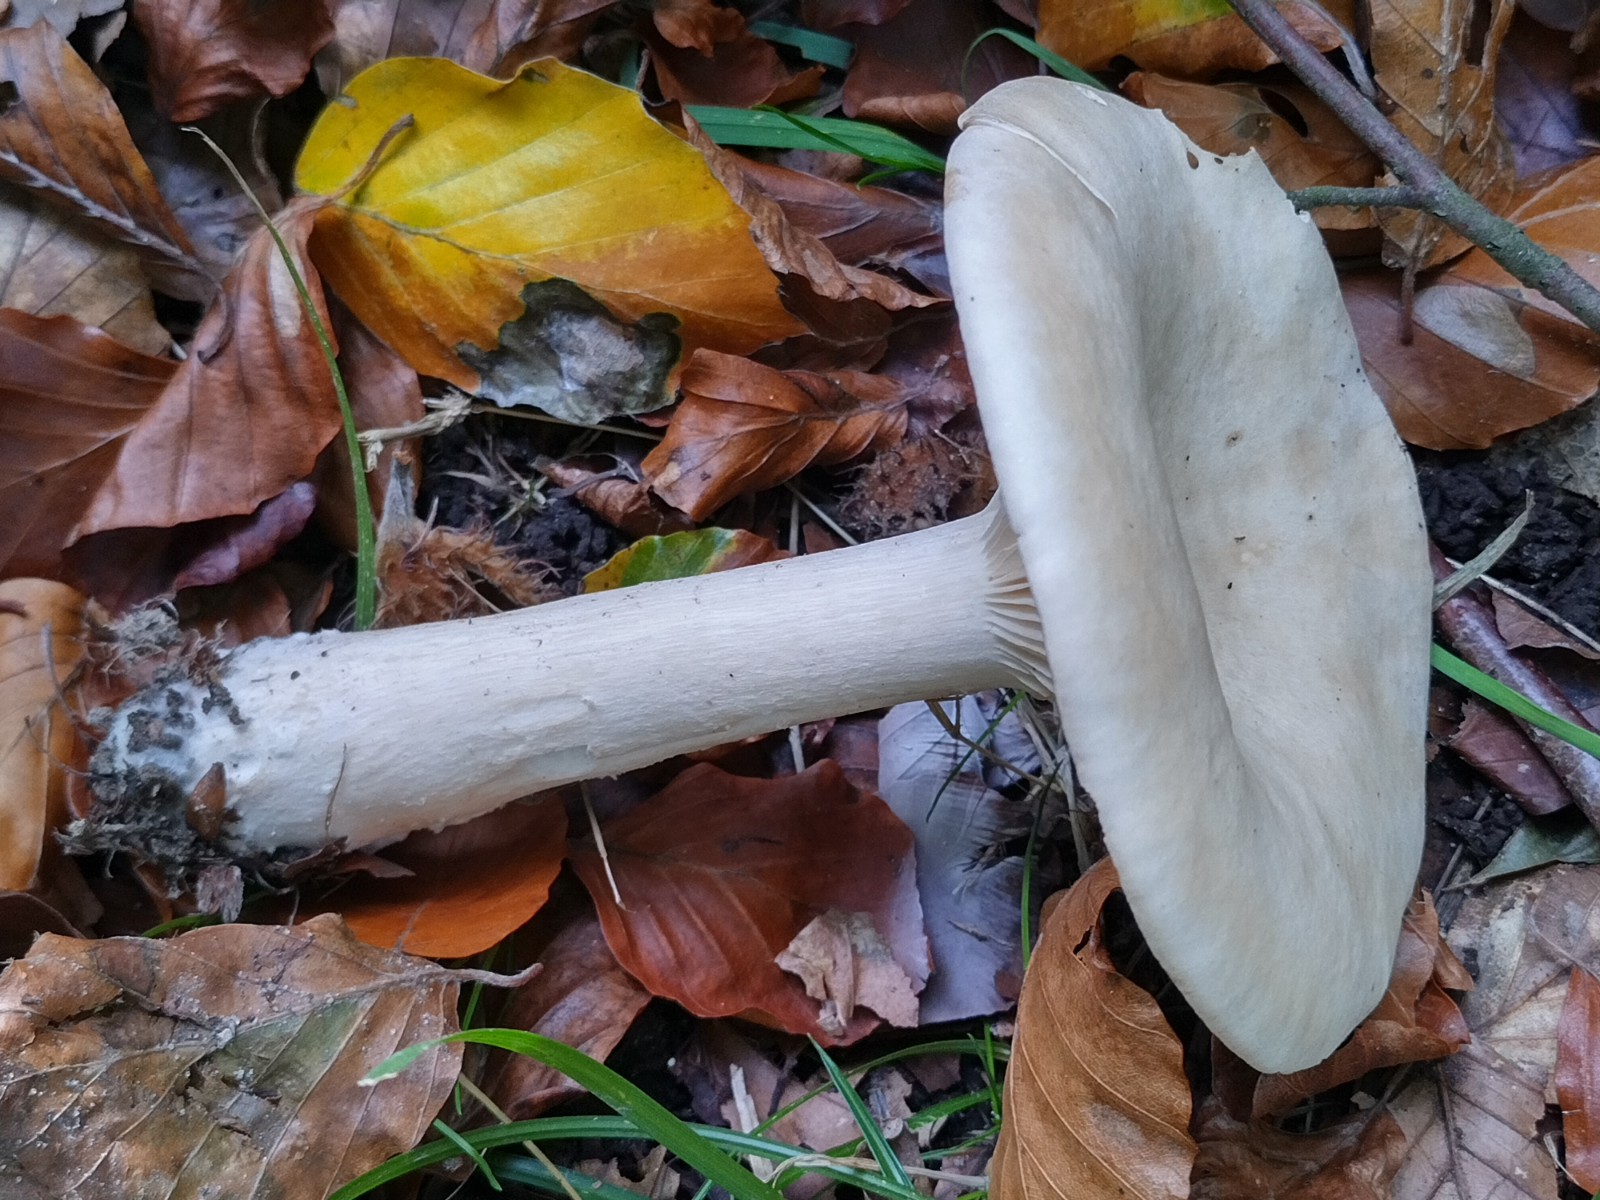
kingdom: Fungi
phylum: Basidiomycota
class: Agaricomycetes
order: Agaricales
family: Tricholomataceae
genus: Infundibulicybe
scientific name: Infundibulicybe geotropa
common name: stor tragthat
